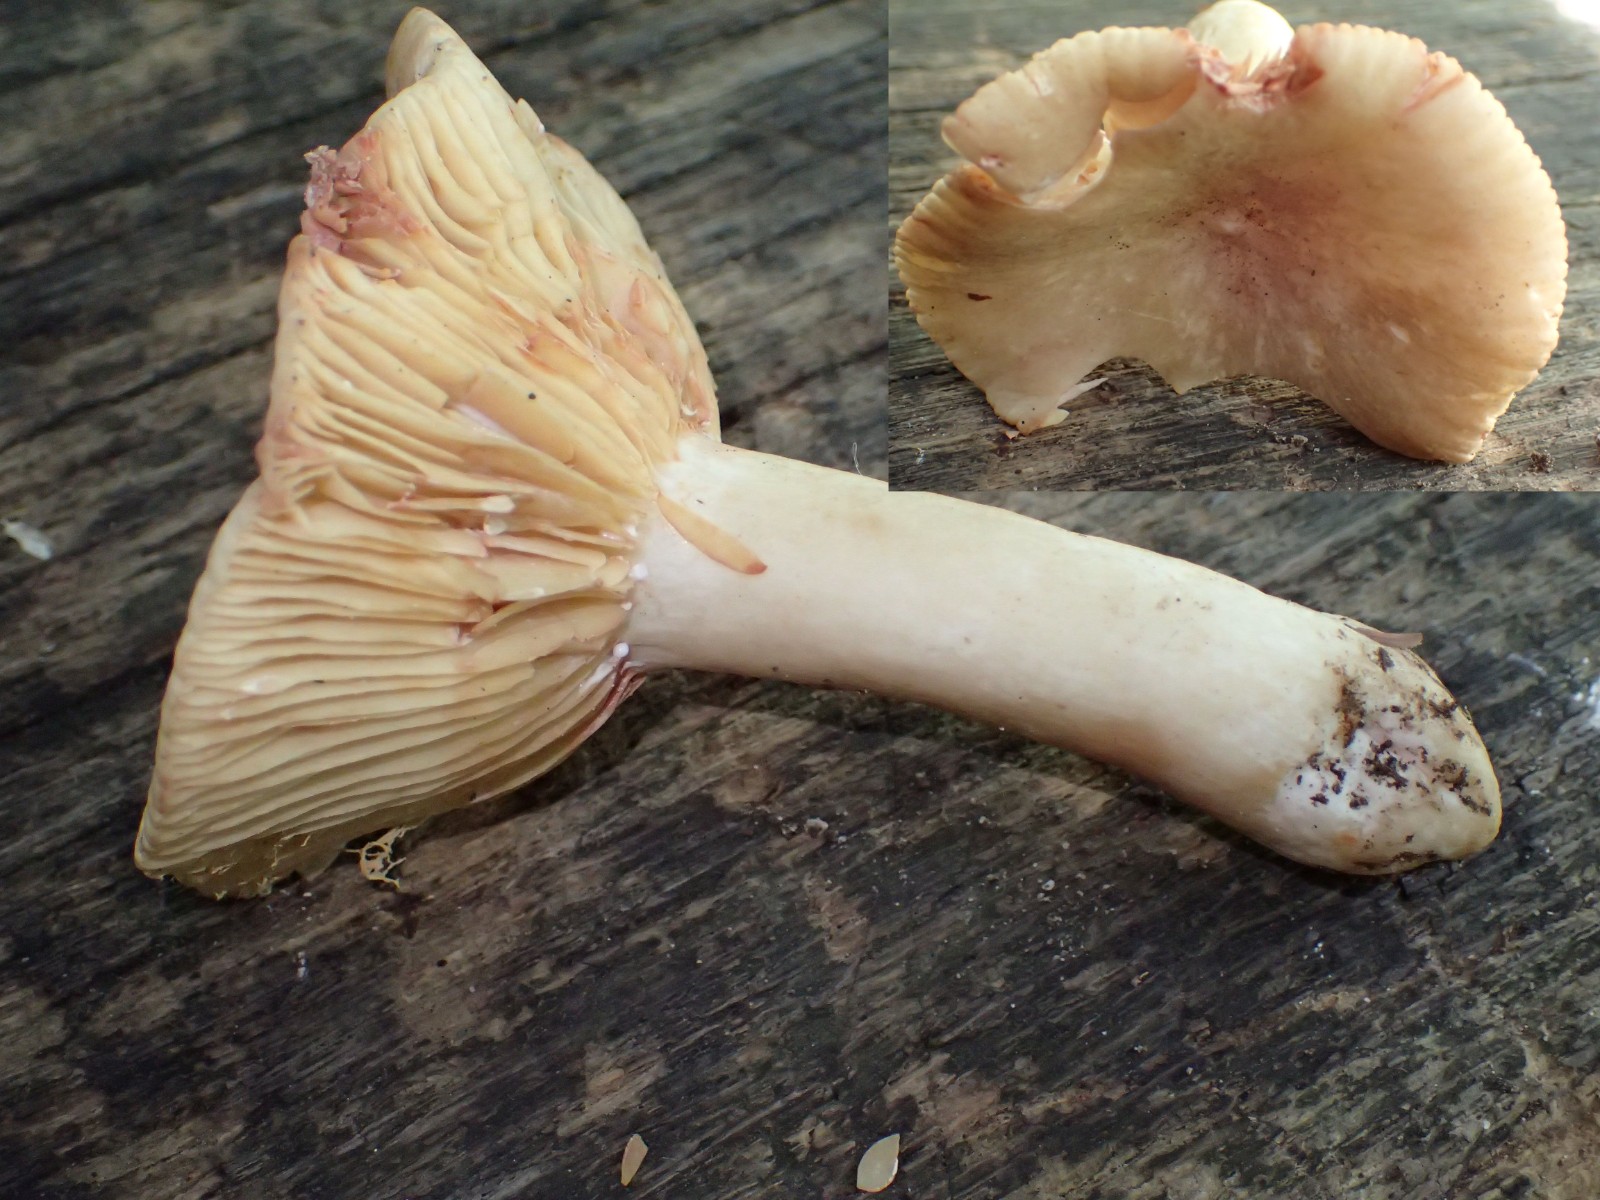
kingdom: Fungi
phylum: Basidiomycota
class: Agaricomycetes
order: Russulales
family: Russulaceae
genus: Lactarius
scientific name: Lactarius acris
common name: rosamælket mælkehat
